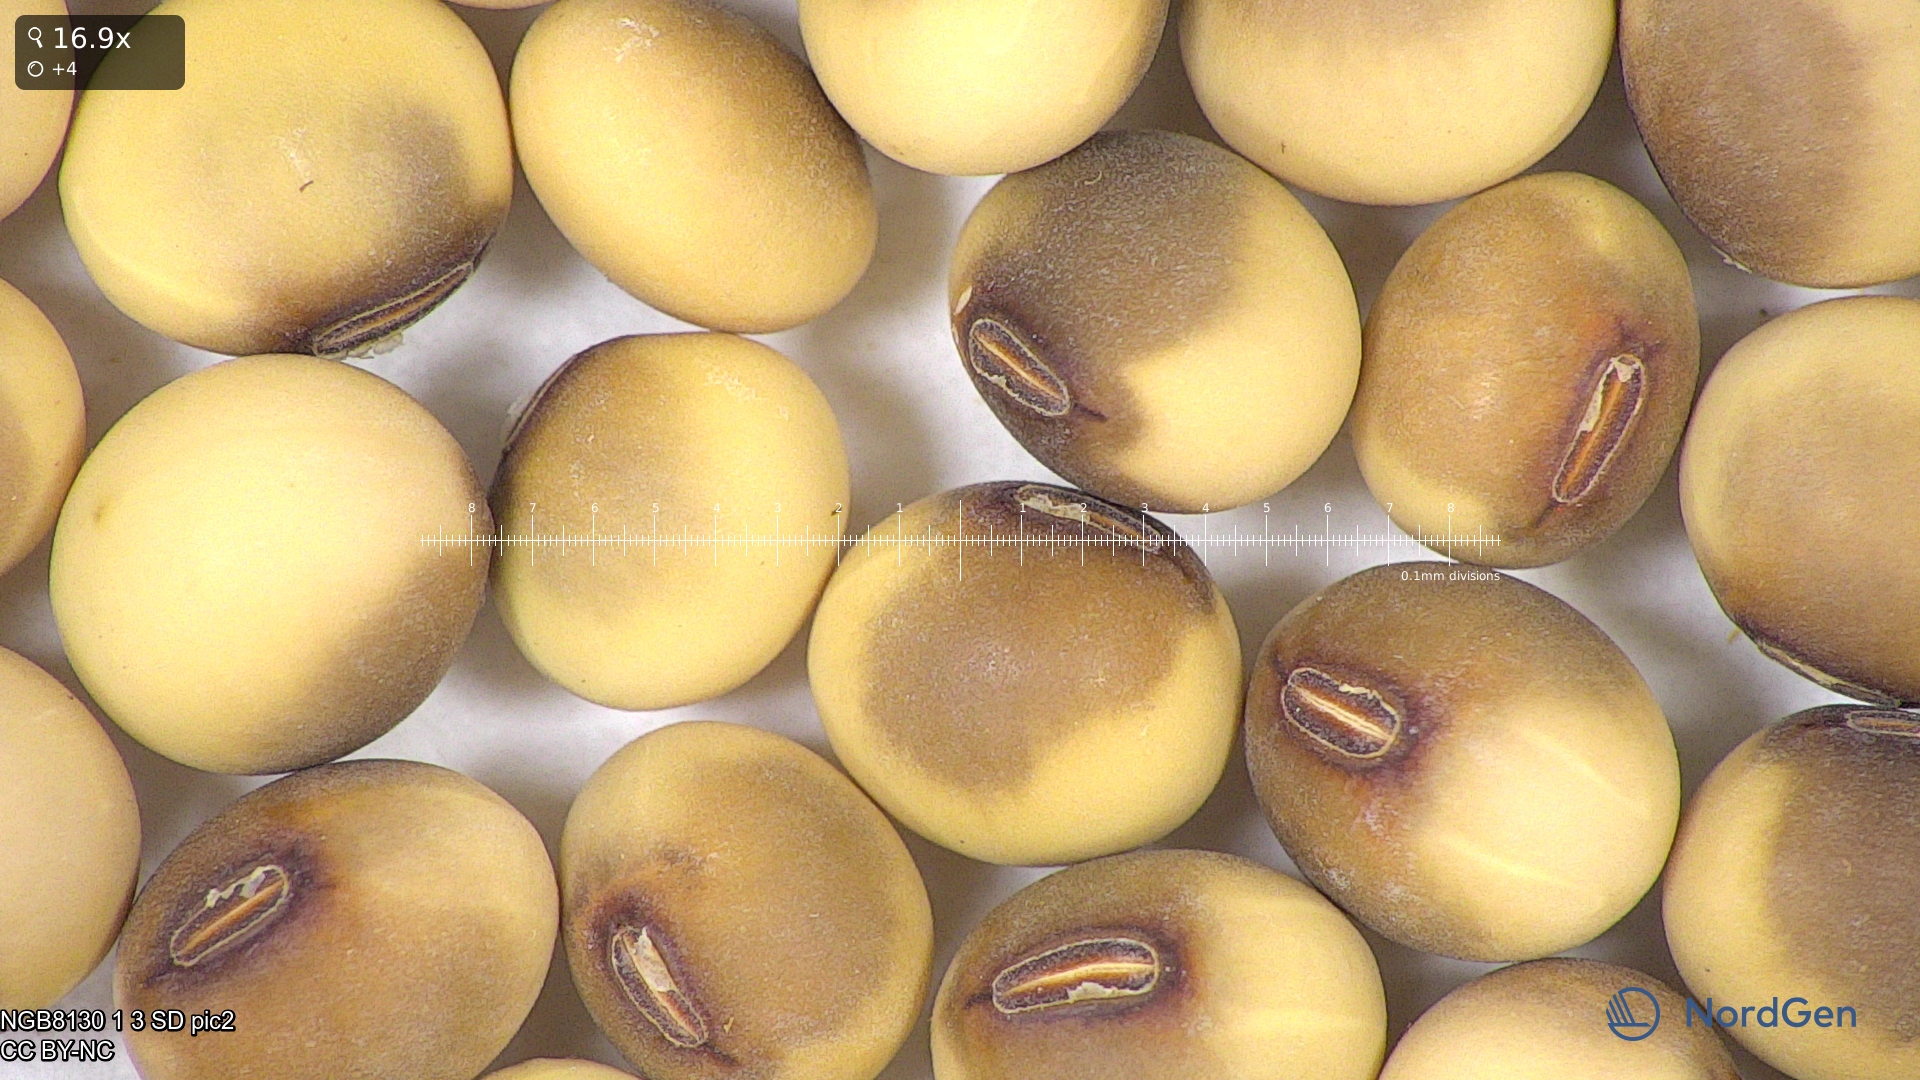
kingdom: Plantae
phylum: Tracheophyta
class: Magnoliopsida
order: Fabales
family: Fabaceae
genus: Glycine
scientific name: Glycine max
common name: Soya-bean
